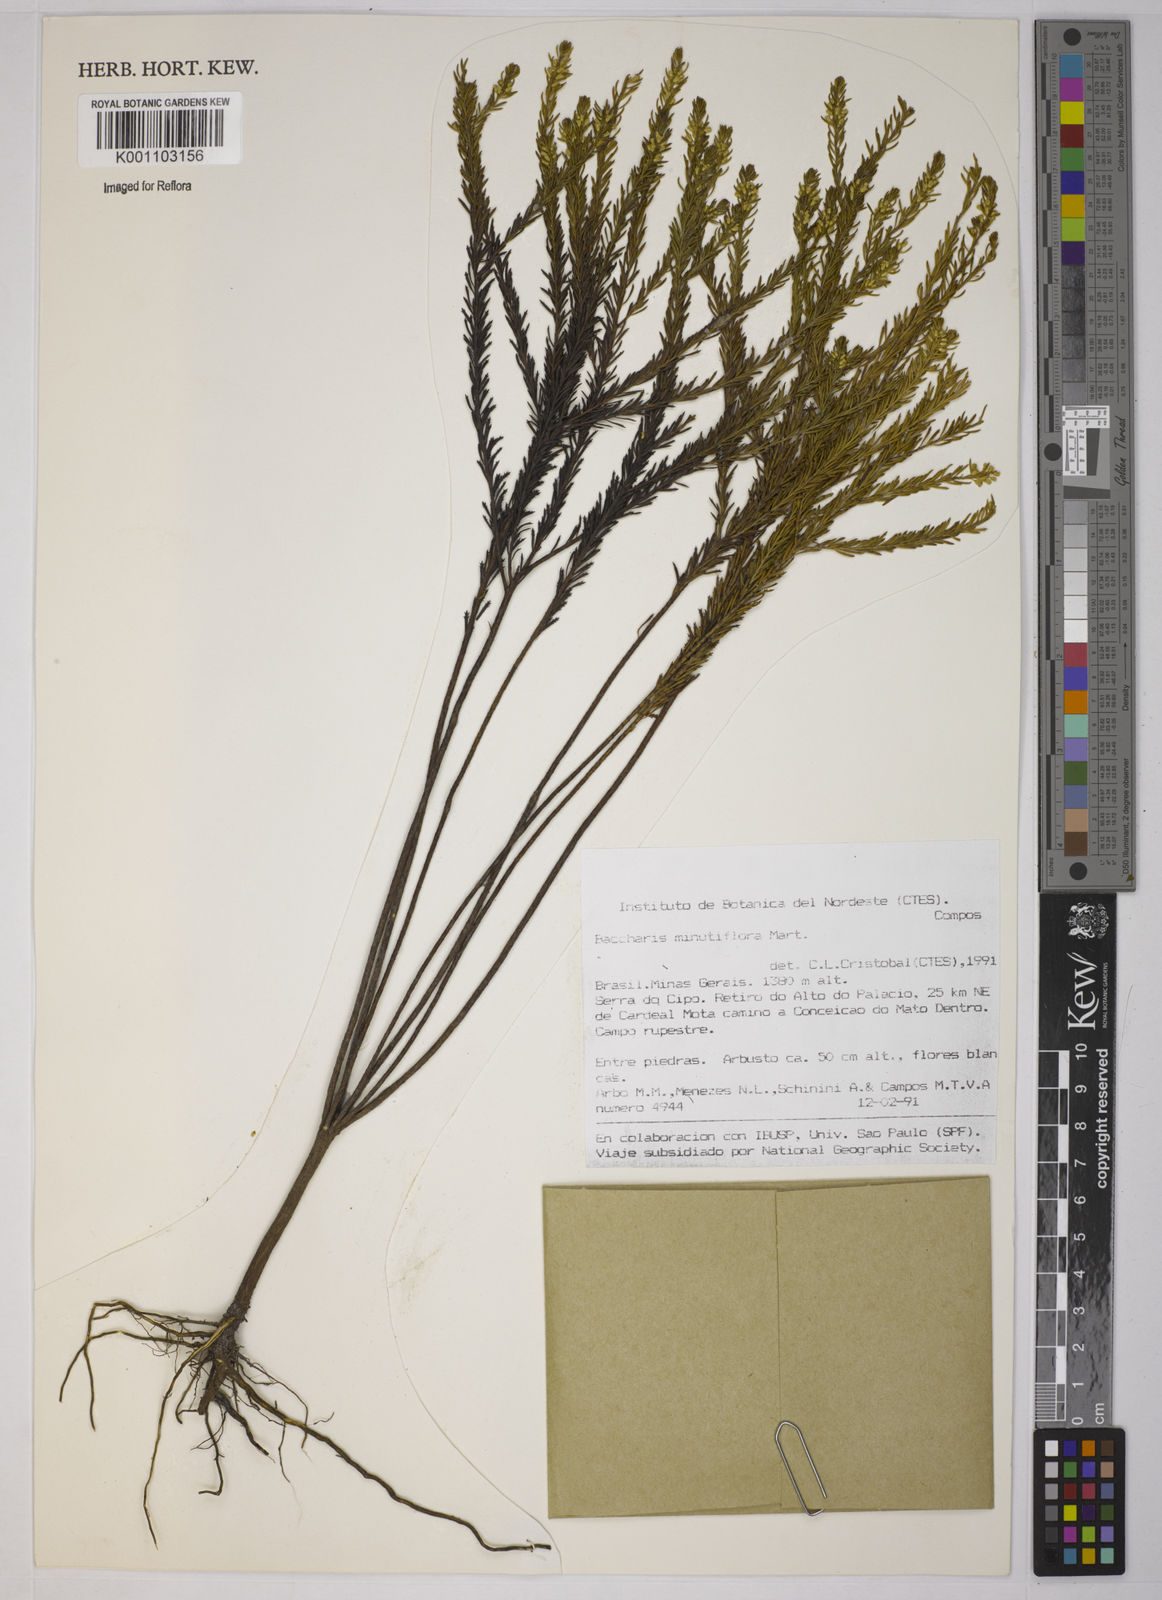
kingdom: Plantae
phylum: Tracheophyta
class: Magnoliopsida
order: Asterales
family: Asteraceae
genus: Baccharis
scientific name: Baccharis minutiflora
